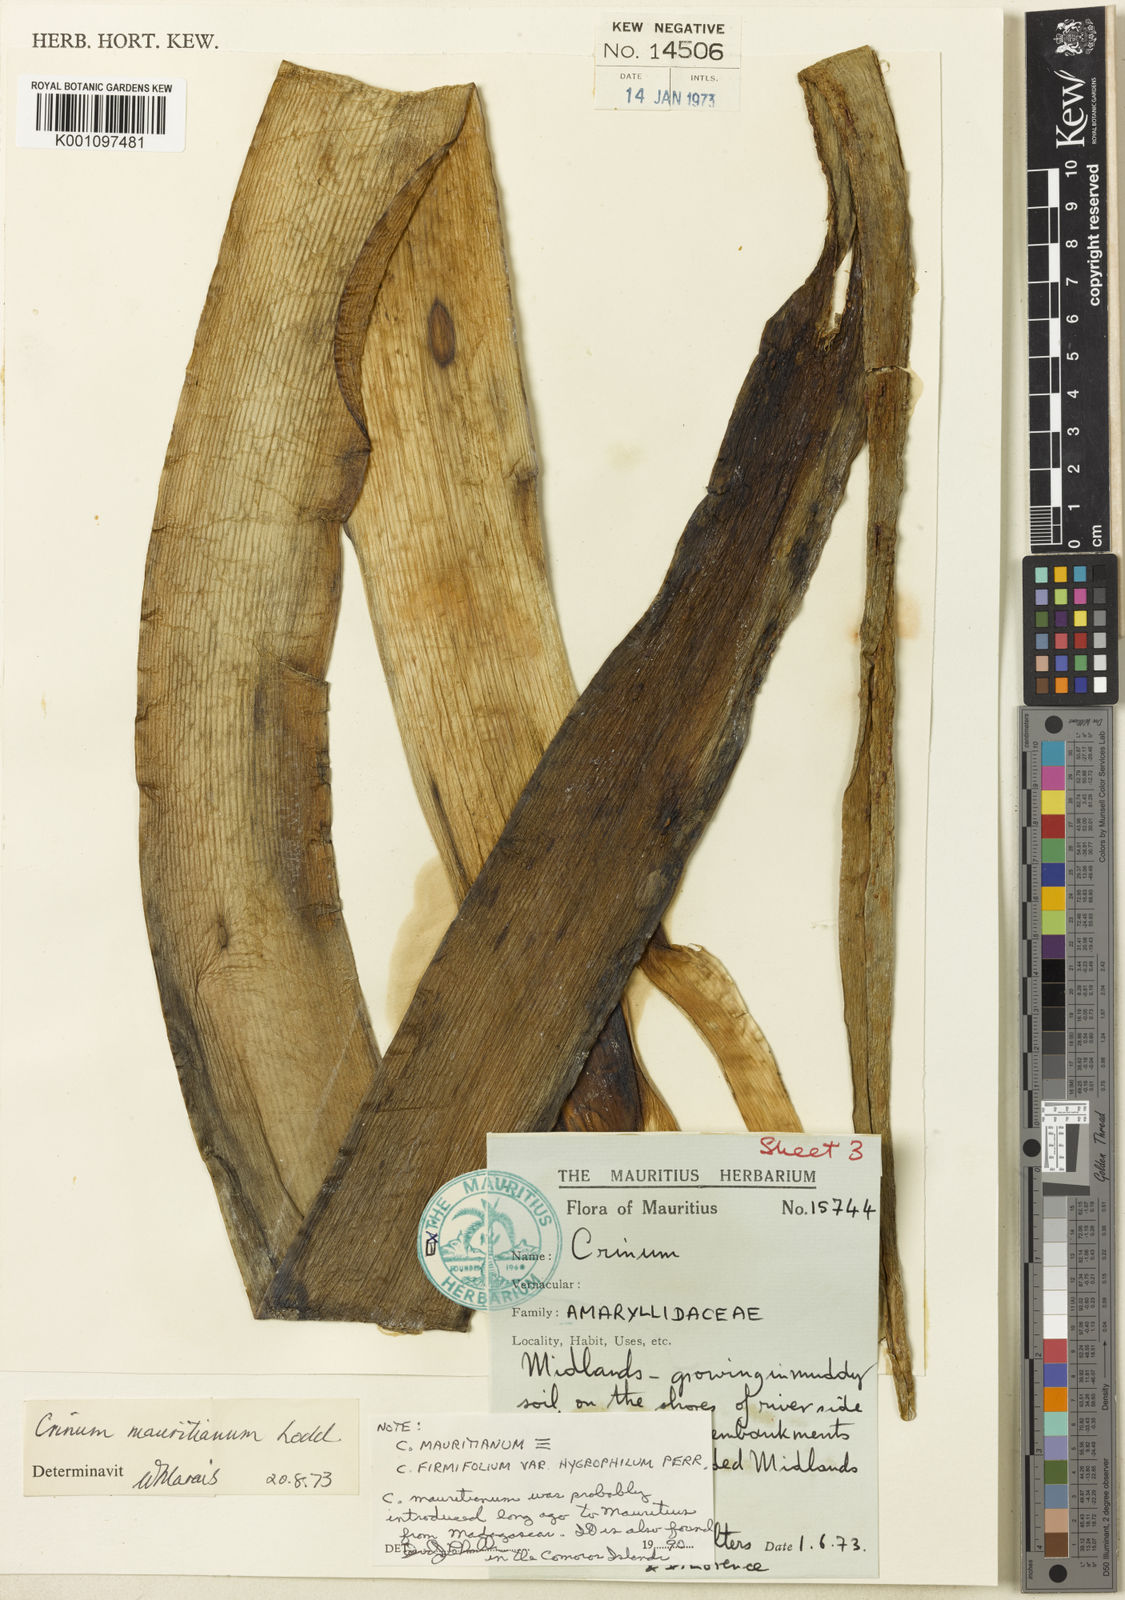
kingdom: Plantae
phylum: Tracheophyta
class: Liliopsida
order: Asparagales
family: Amaryllidaceae
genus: Crinum
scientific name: Crinum mauritianum
